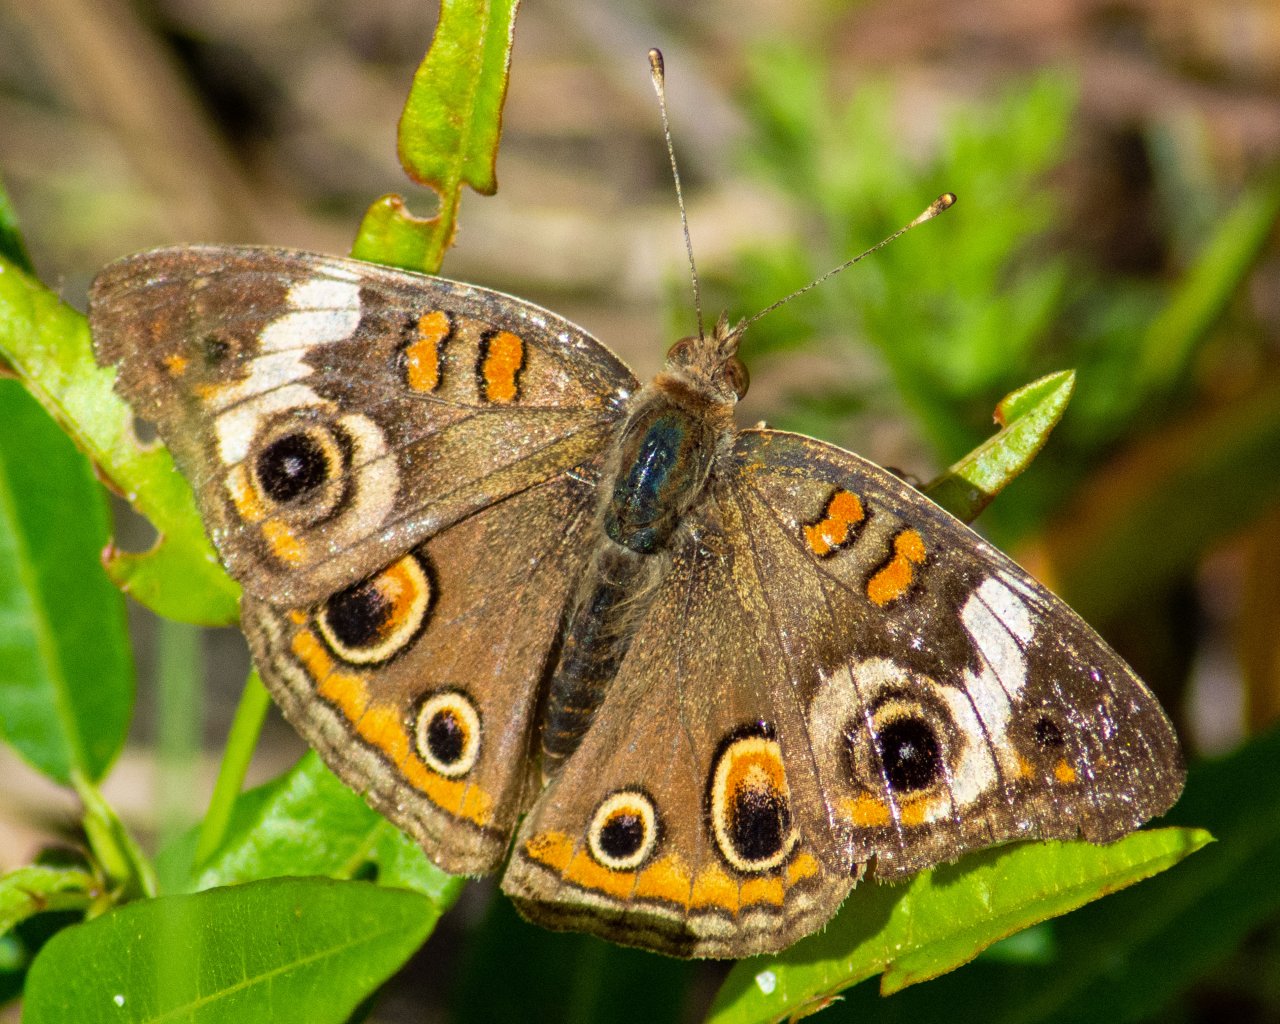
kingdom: Animalia
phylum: Arthropoda
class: Insecta
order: Lepidoptera
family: Nymphalidae
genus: Junonia
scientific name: Junonia coenia
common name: Common Buckeye
